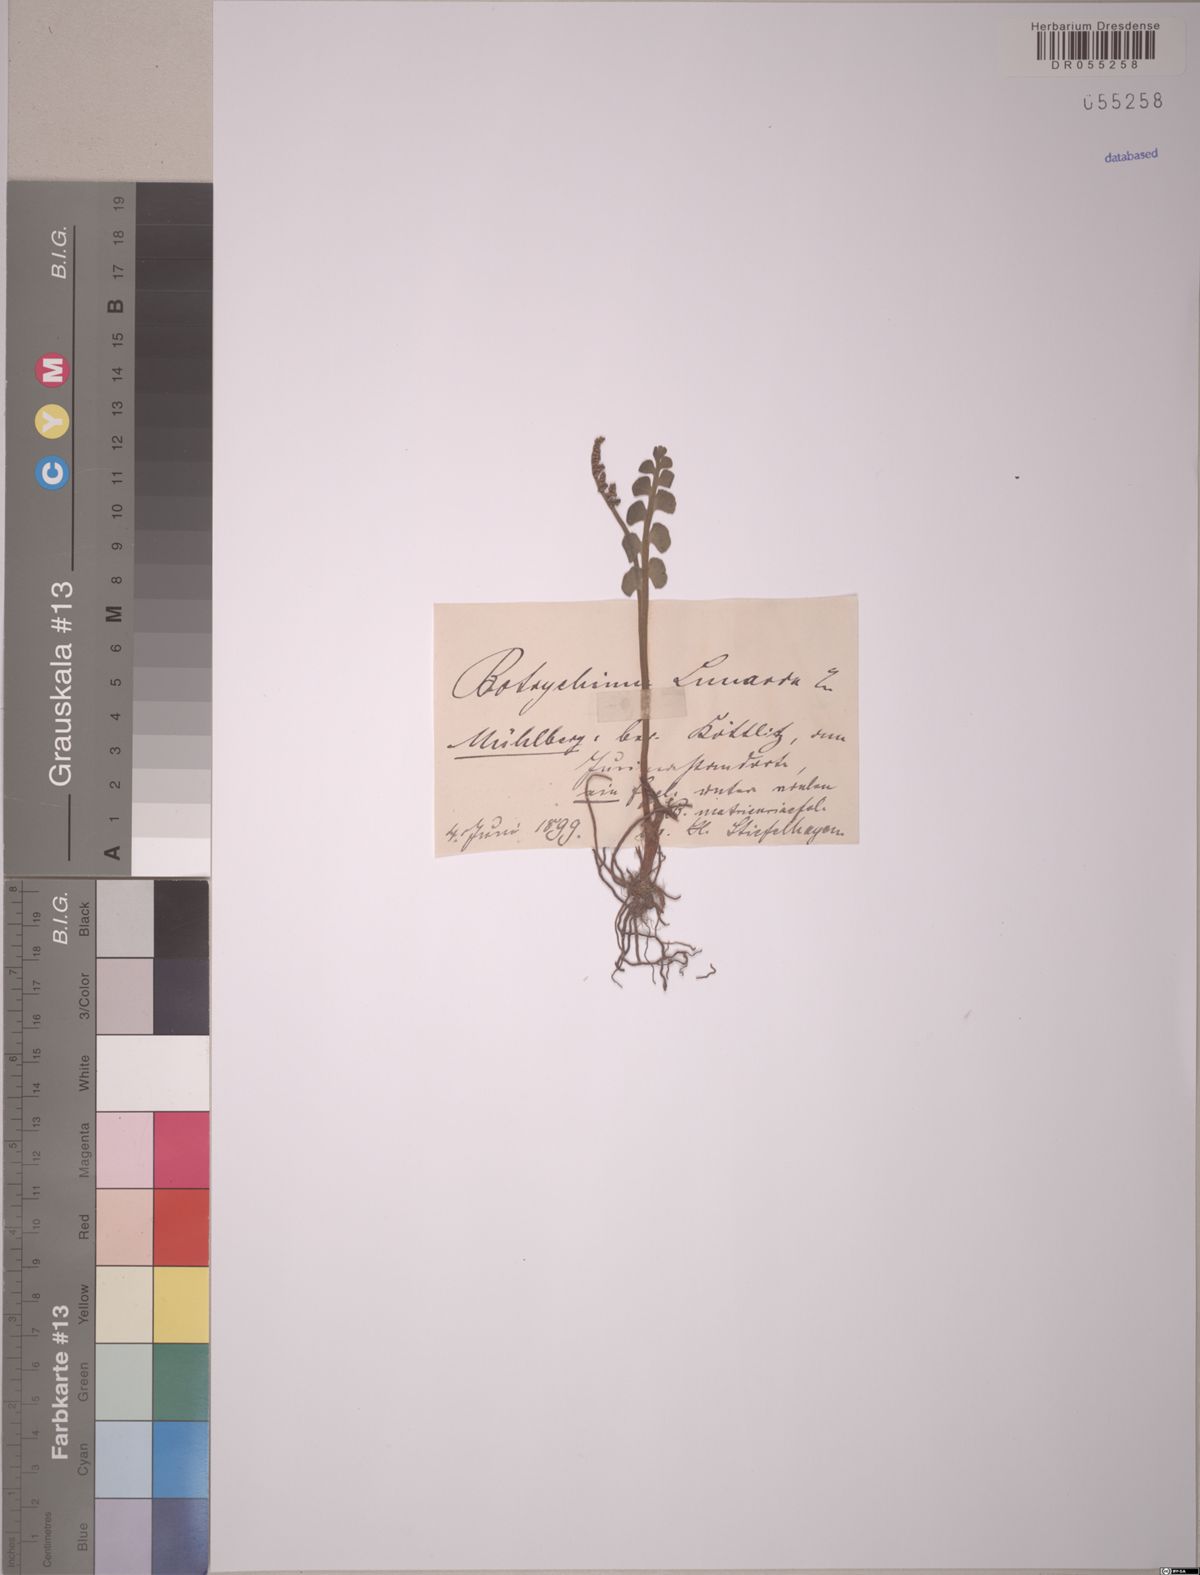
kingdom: Plantae
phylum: Tracheophyta
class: Polypodiopsida
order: Ophioglossales
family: Ophioglossaceae
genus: Botrychium
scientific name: Botrychium lunaria
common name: Moonwort
